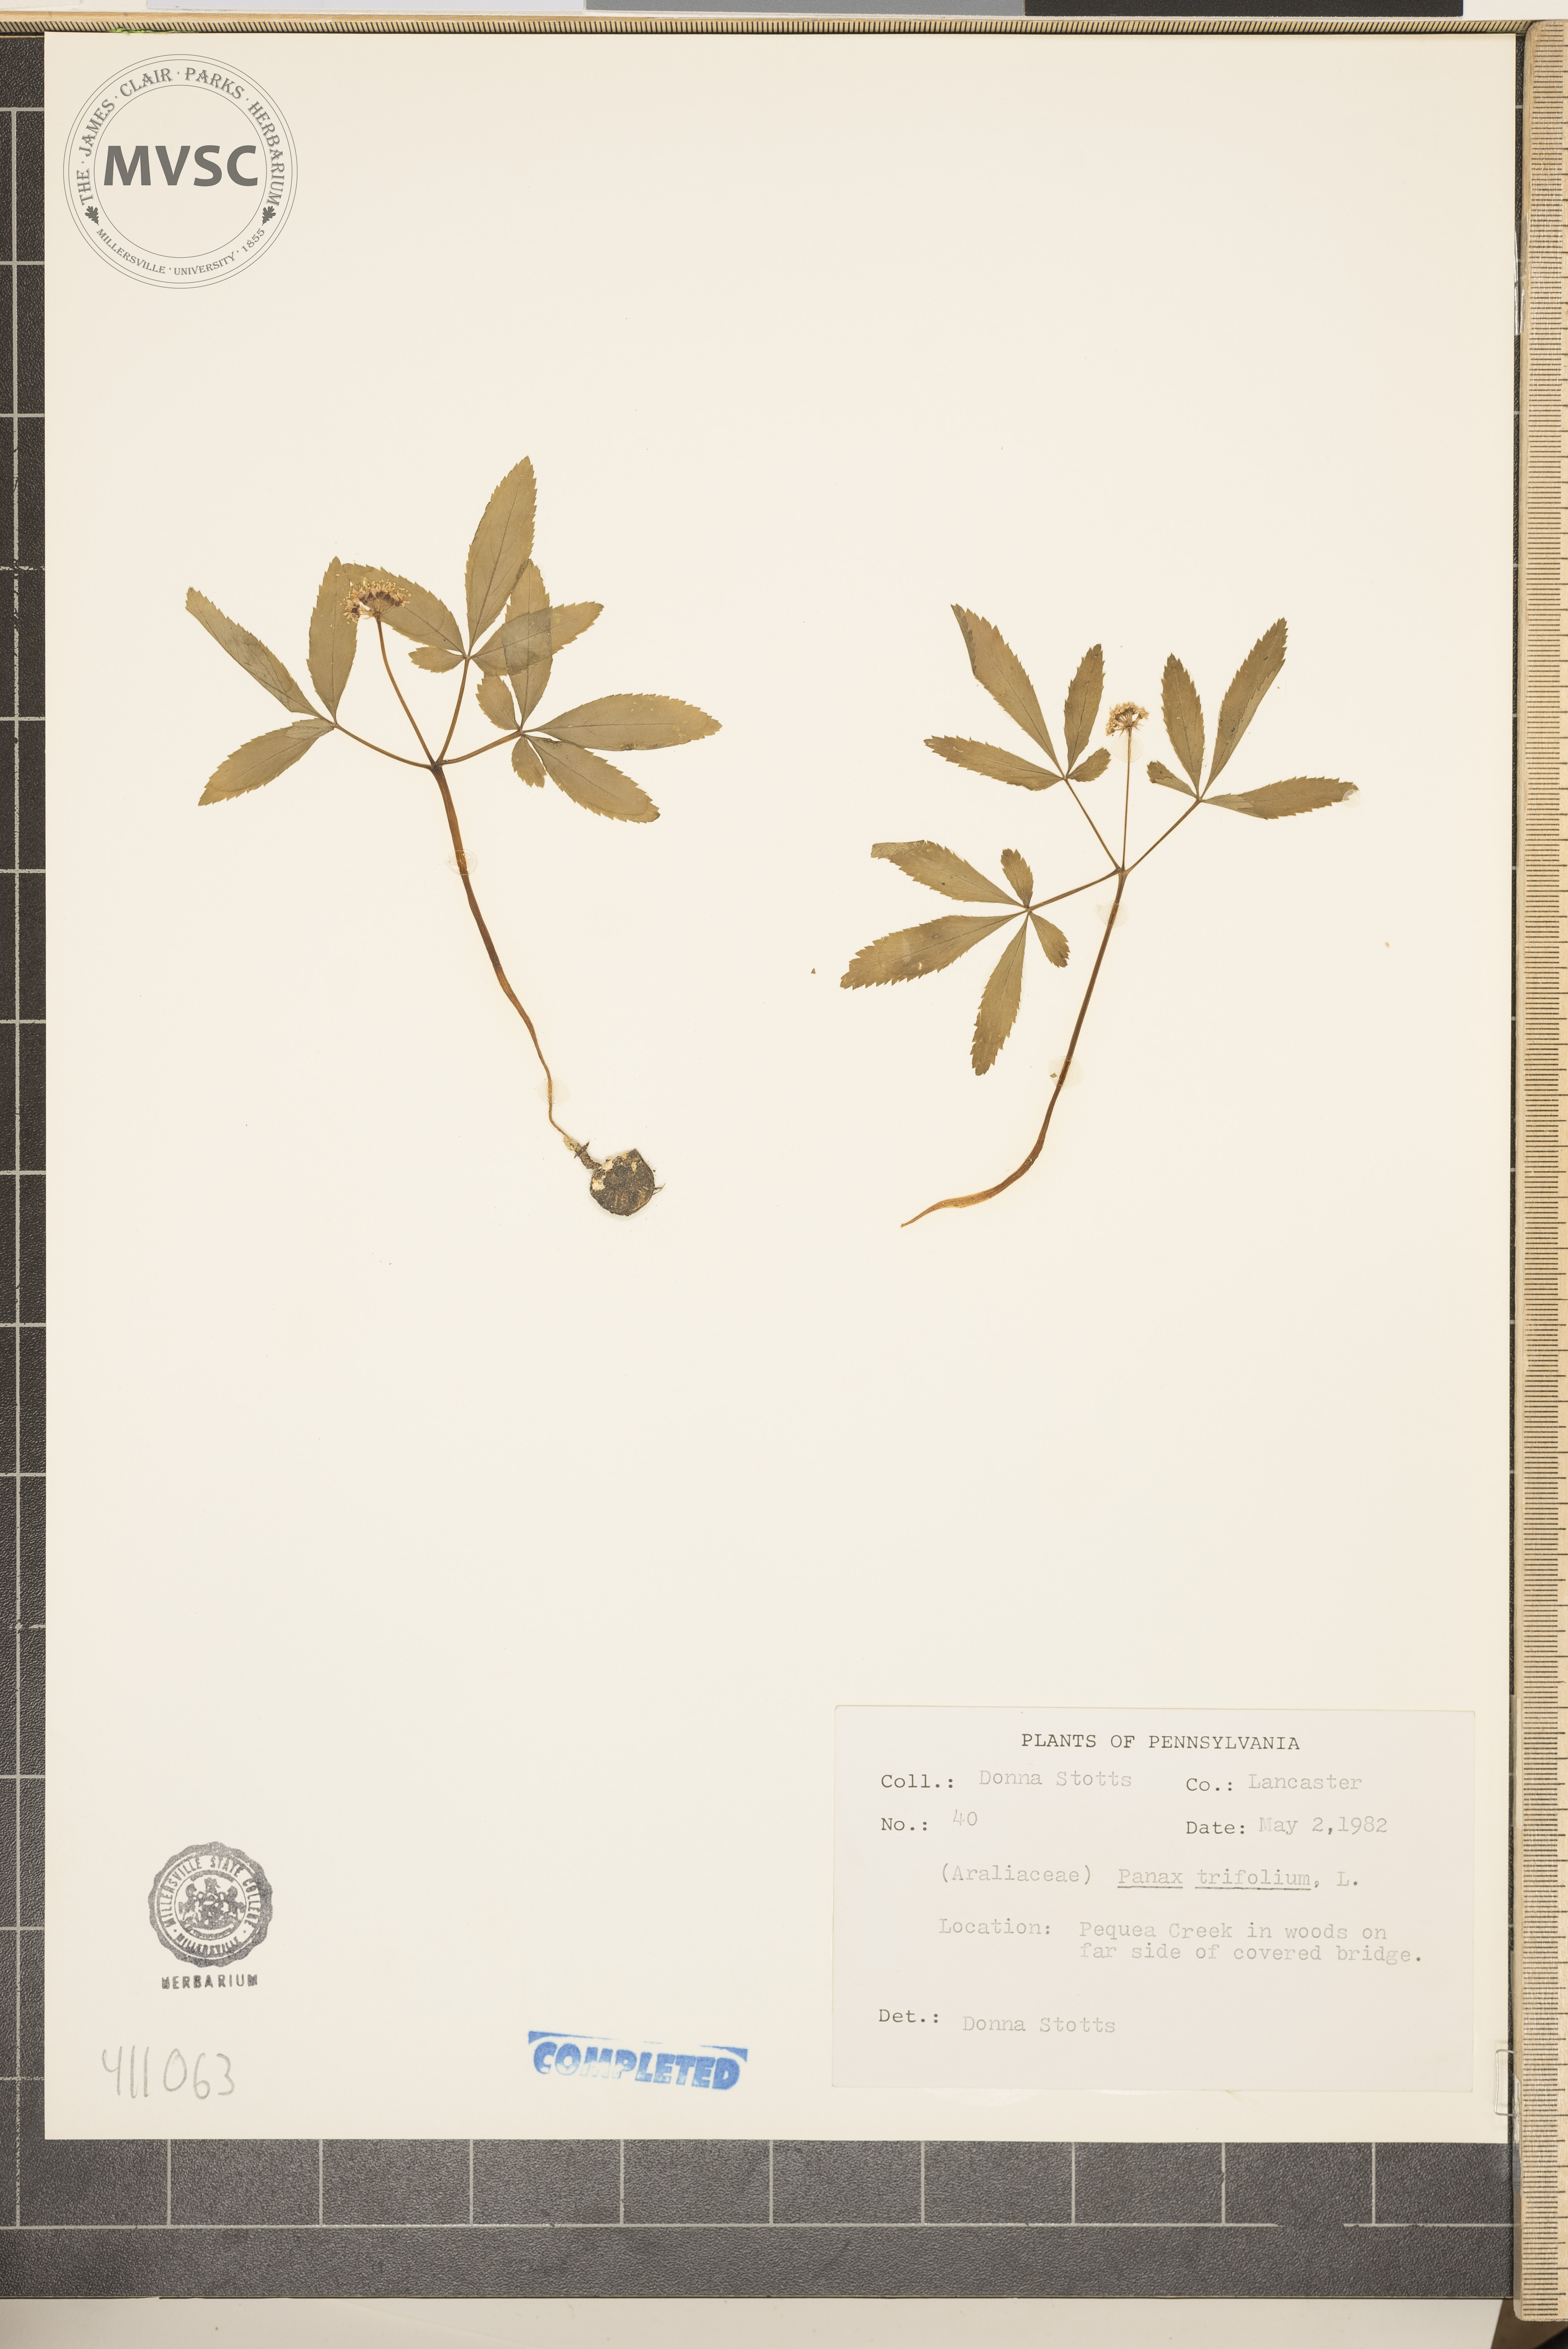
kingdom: Plantae
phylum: Tracheophyta
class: Magnoliopsida
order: Apiales
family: Araliaceae
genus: Panax
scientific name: Panax trifolius
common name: Dwarf ginseng
